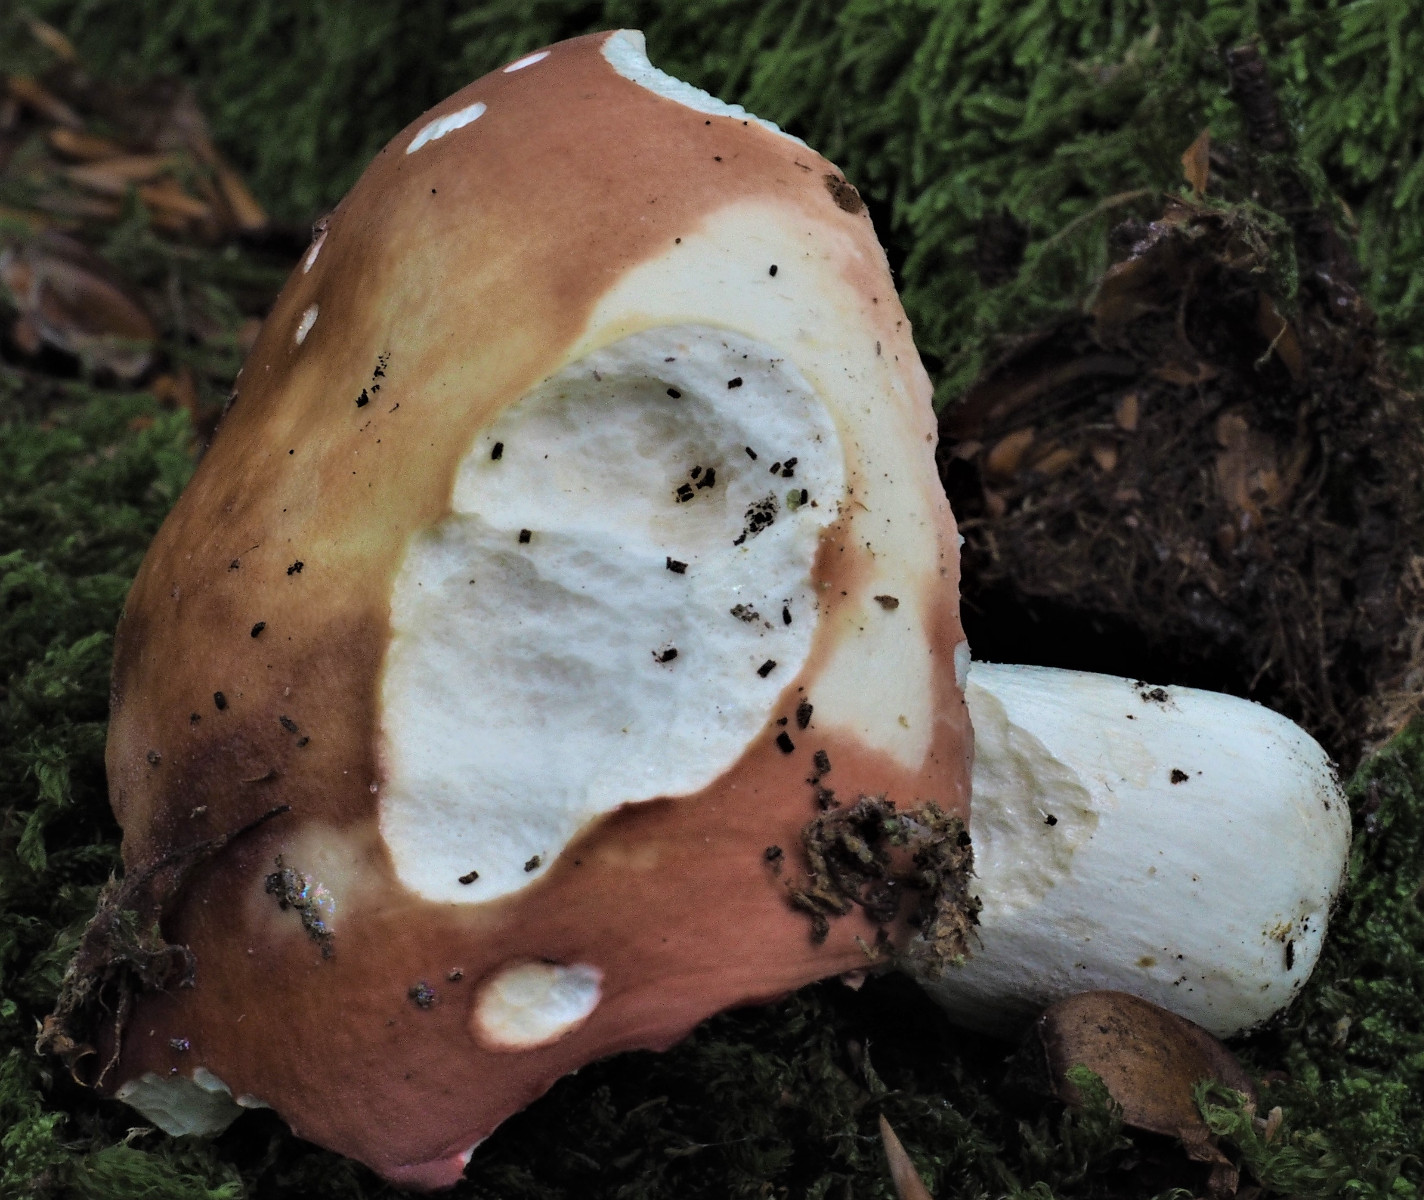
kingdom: Fungi
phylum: Basidiomycota
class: Agaricomycetes
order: Russulales
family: Russulaceae
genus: Russula
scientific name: Russula velenovskyi
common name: orangerød skørhat
